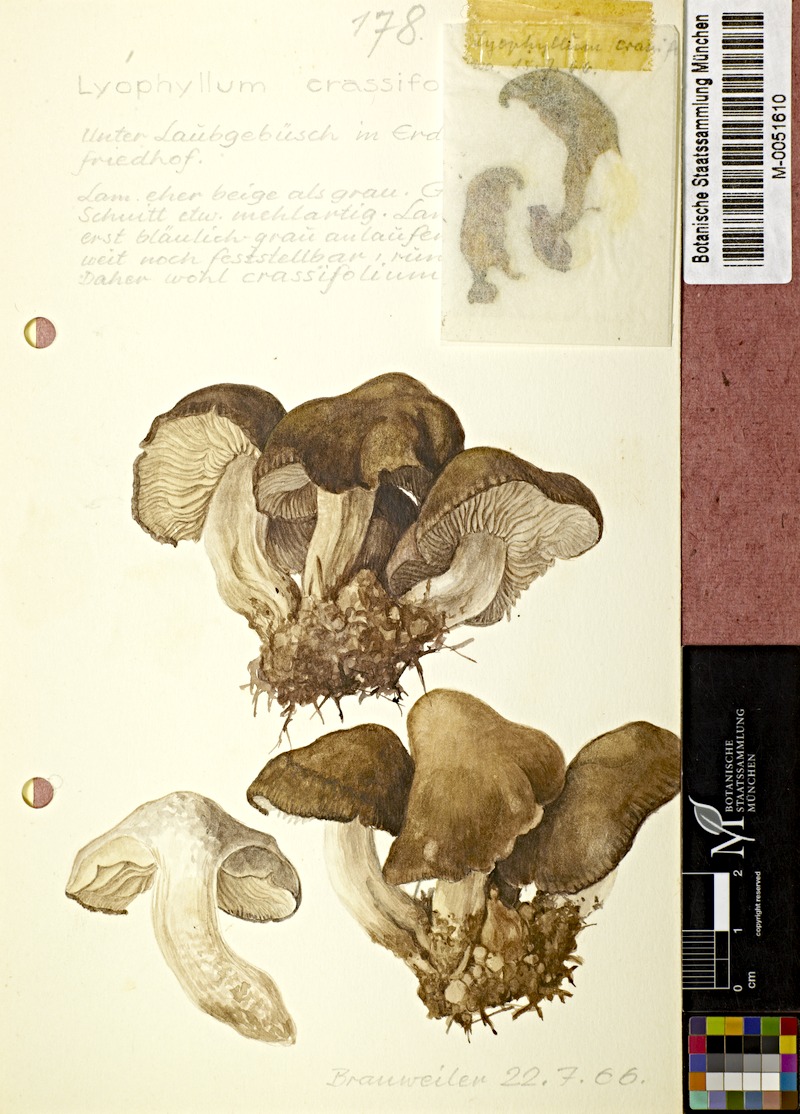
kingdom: Fungi
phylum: Basidiomycota
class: Agaricomycetes
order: Agaricales
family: Lyophyllaceae
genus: Lyophyllum
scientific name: Lyophyllum crassifolium
